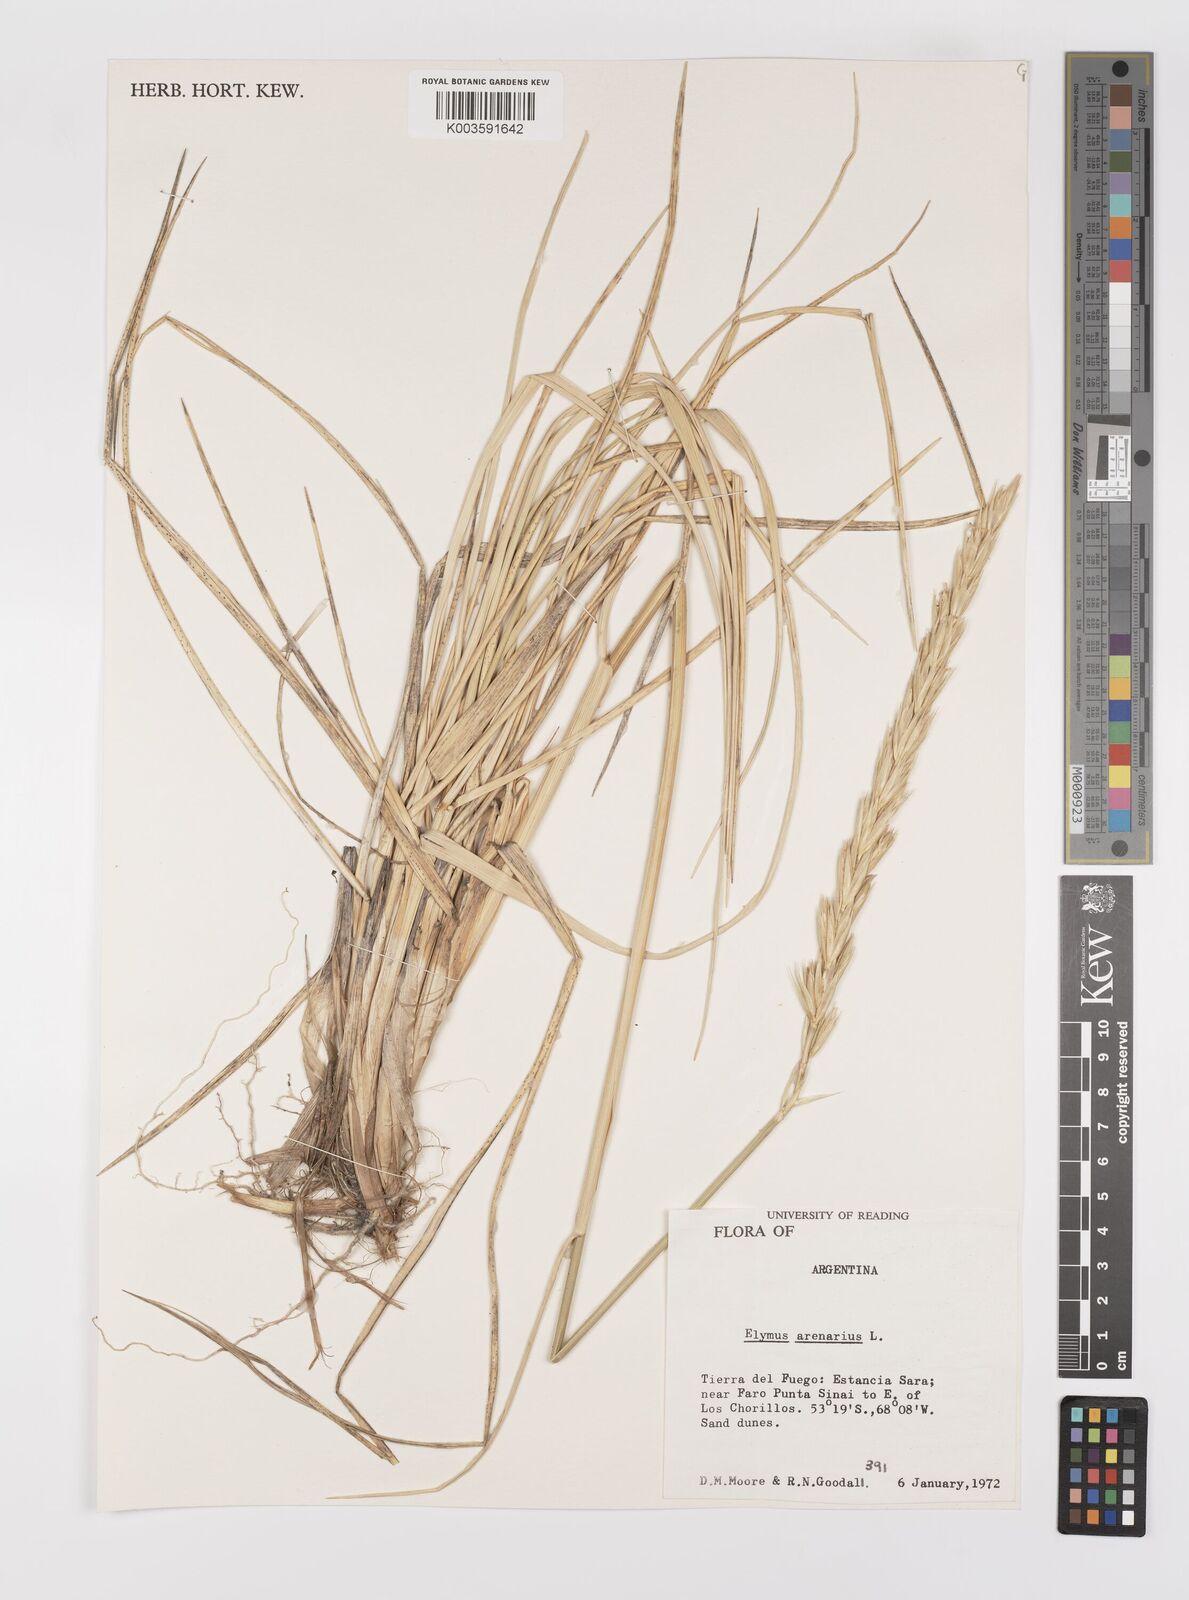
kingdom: Plantae
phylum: Tracheophyta
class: Liliopsida
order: Poales
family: Poaceae
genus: Leymus
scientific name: Leymus arenarius
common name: Lyme-grass
